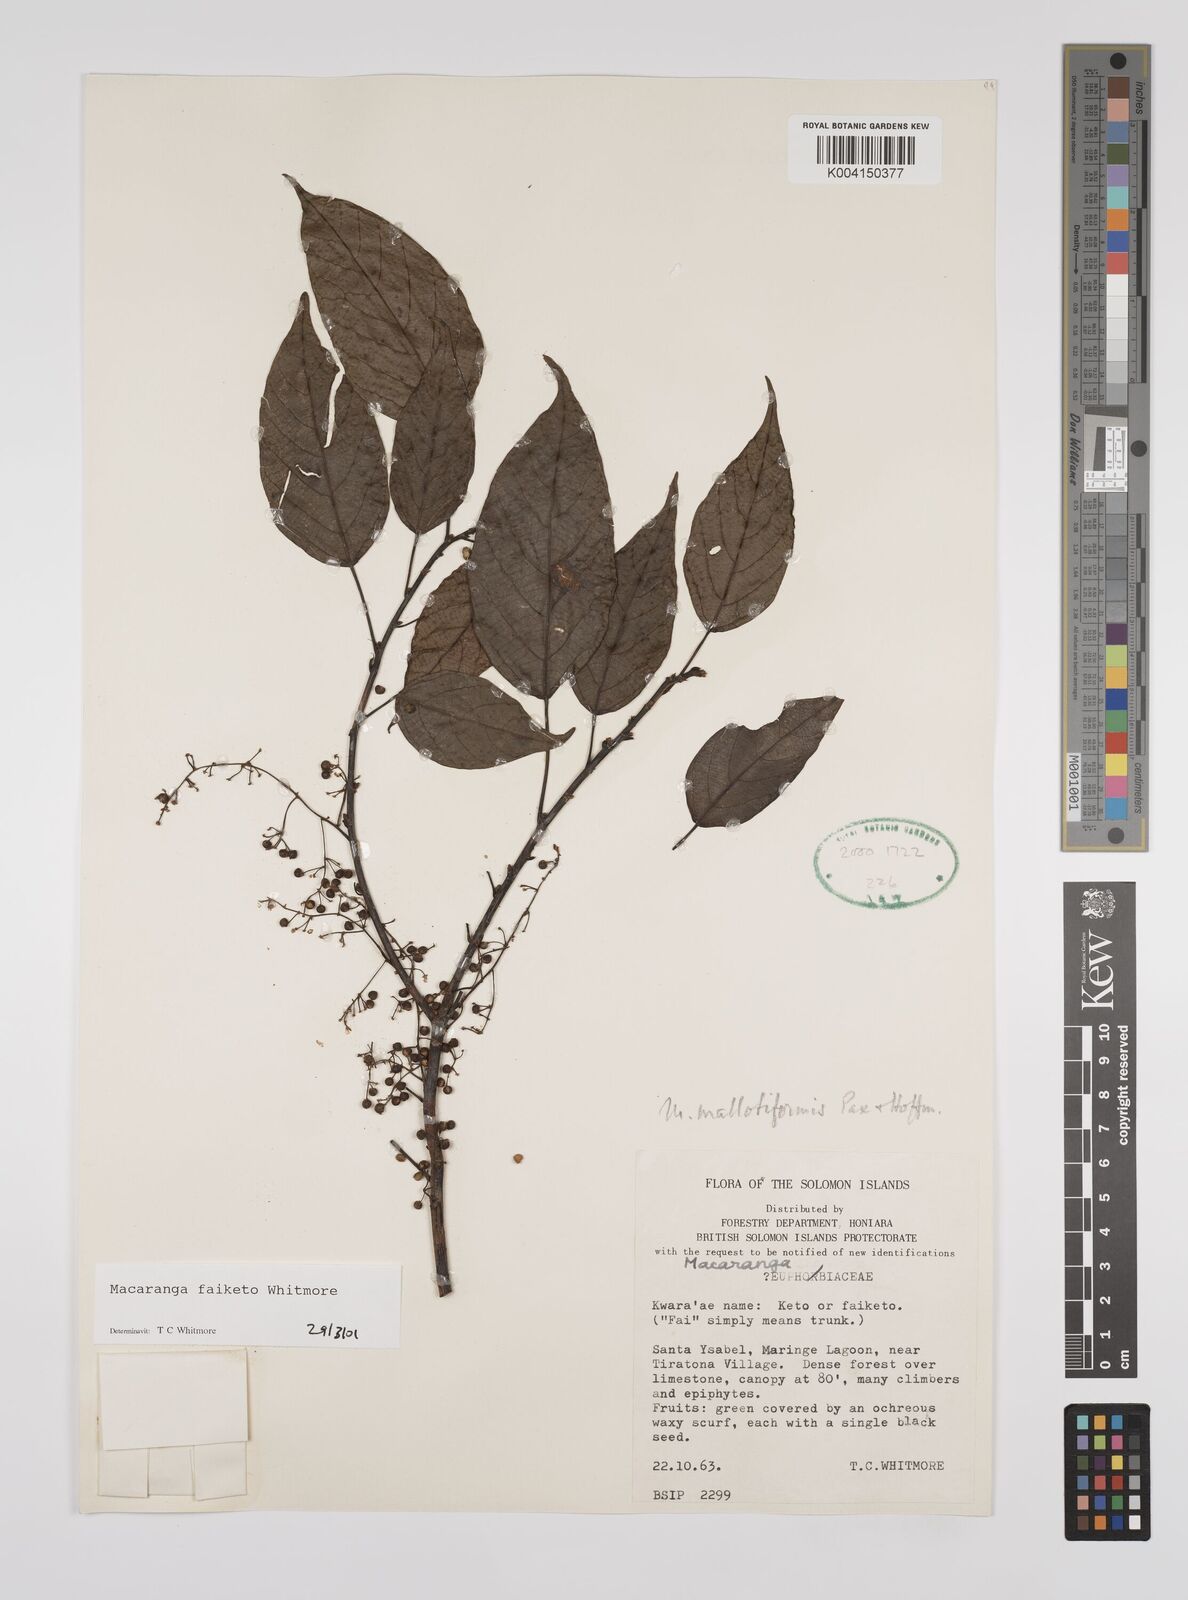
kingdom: Plantae
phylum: Tracheophyta
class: Magnoliopsida
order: Malpighiales
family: Euphorbiaceae
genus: Macaranga
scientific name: Macaranga faiketo
